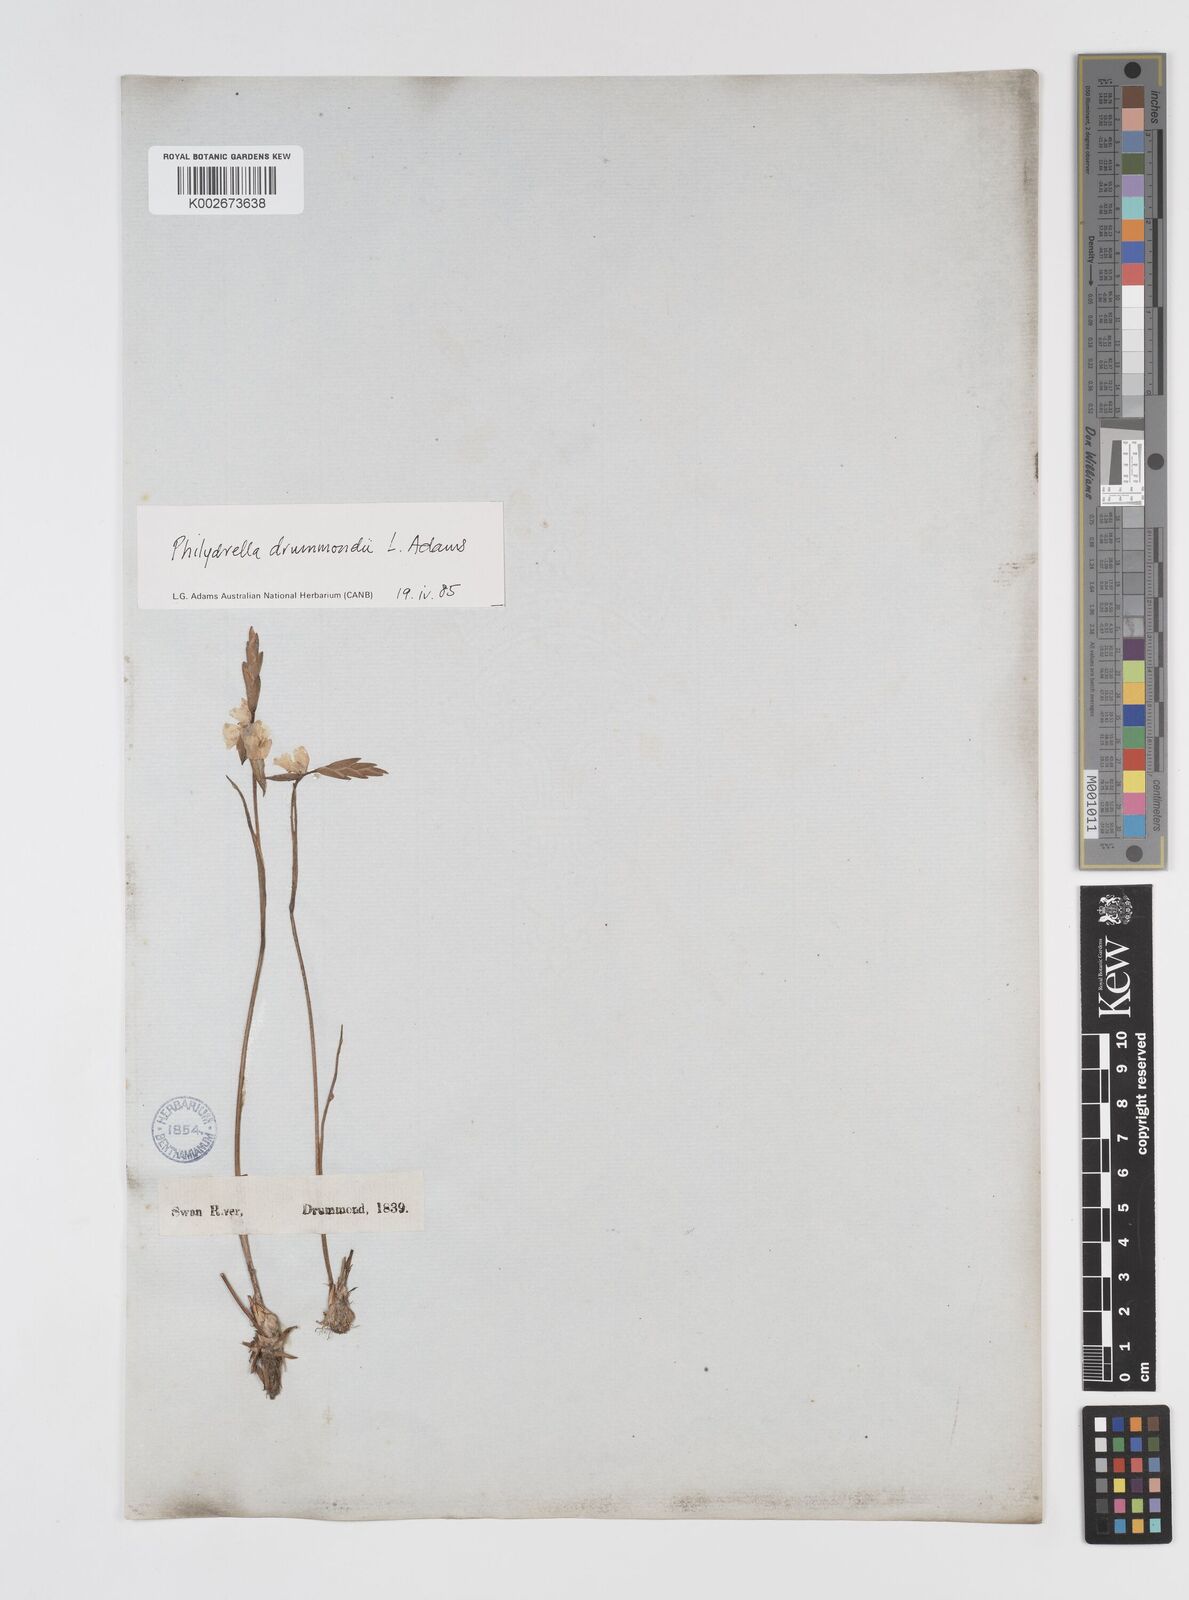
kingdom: Plantae
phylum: Tracheophyta
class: Liliopsida
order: Commelinales
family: Philydraceae
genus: Philydrella
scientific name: Philydrella drummondii
